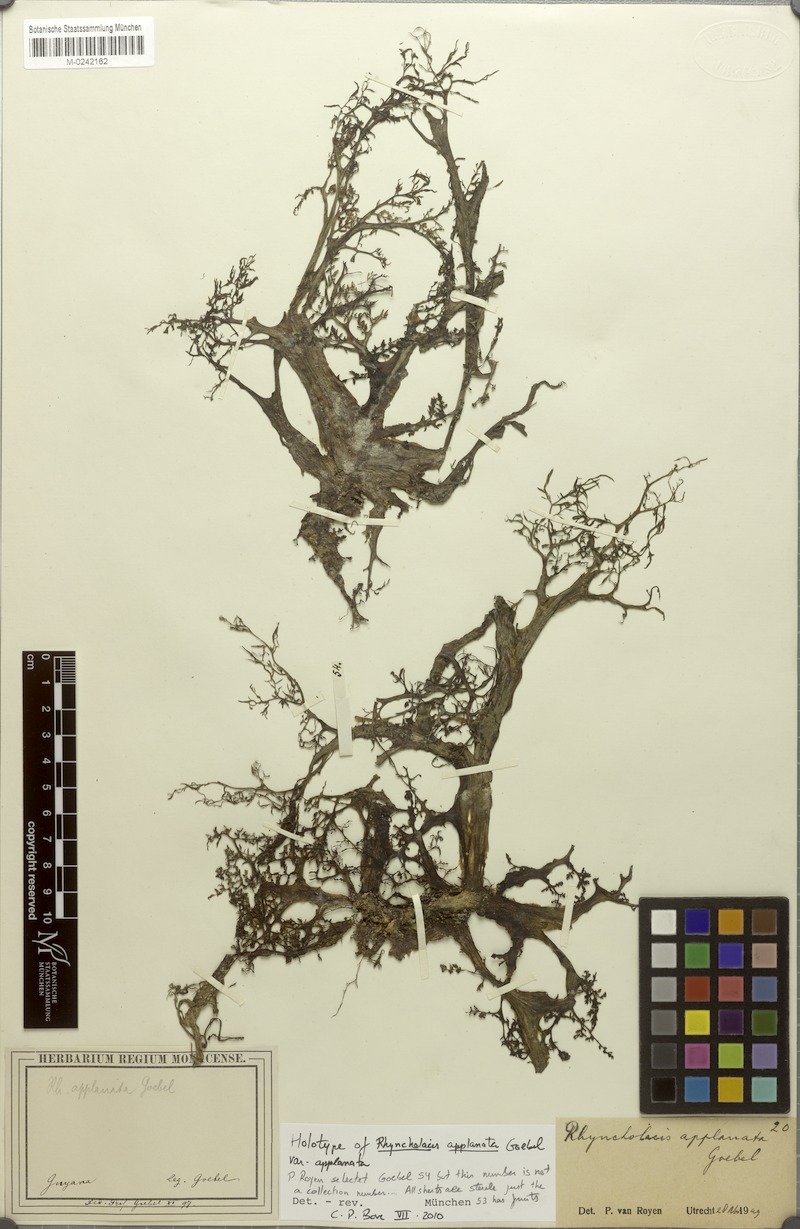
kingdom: Plantae
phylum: Tracheophyta
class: Magnoliopsida
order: Malpighiales
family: Podostemaceae
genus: Rhyncholacis
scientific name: Rhyncholacis applanata
